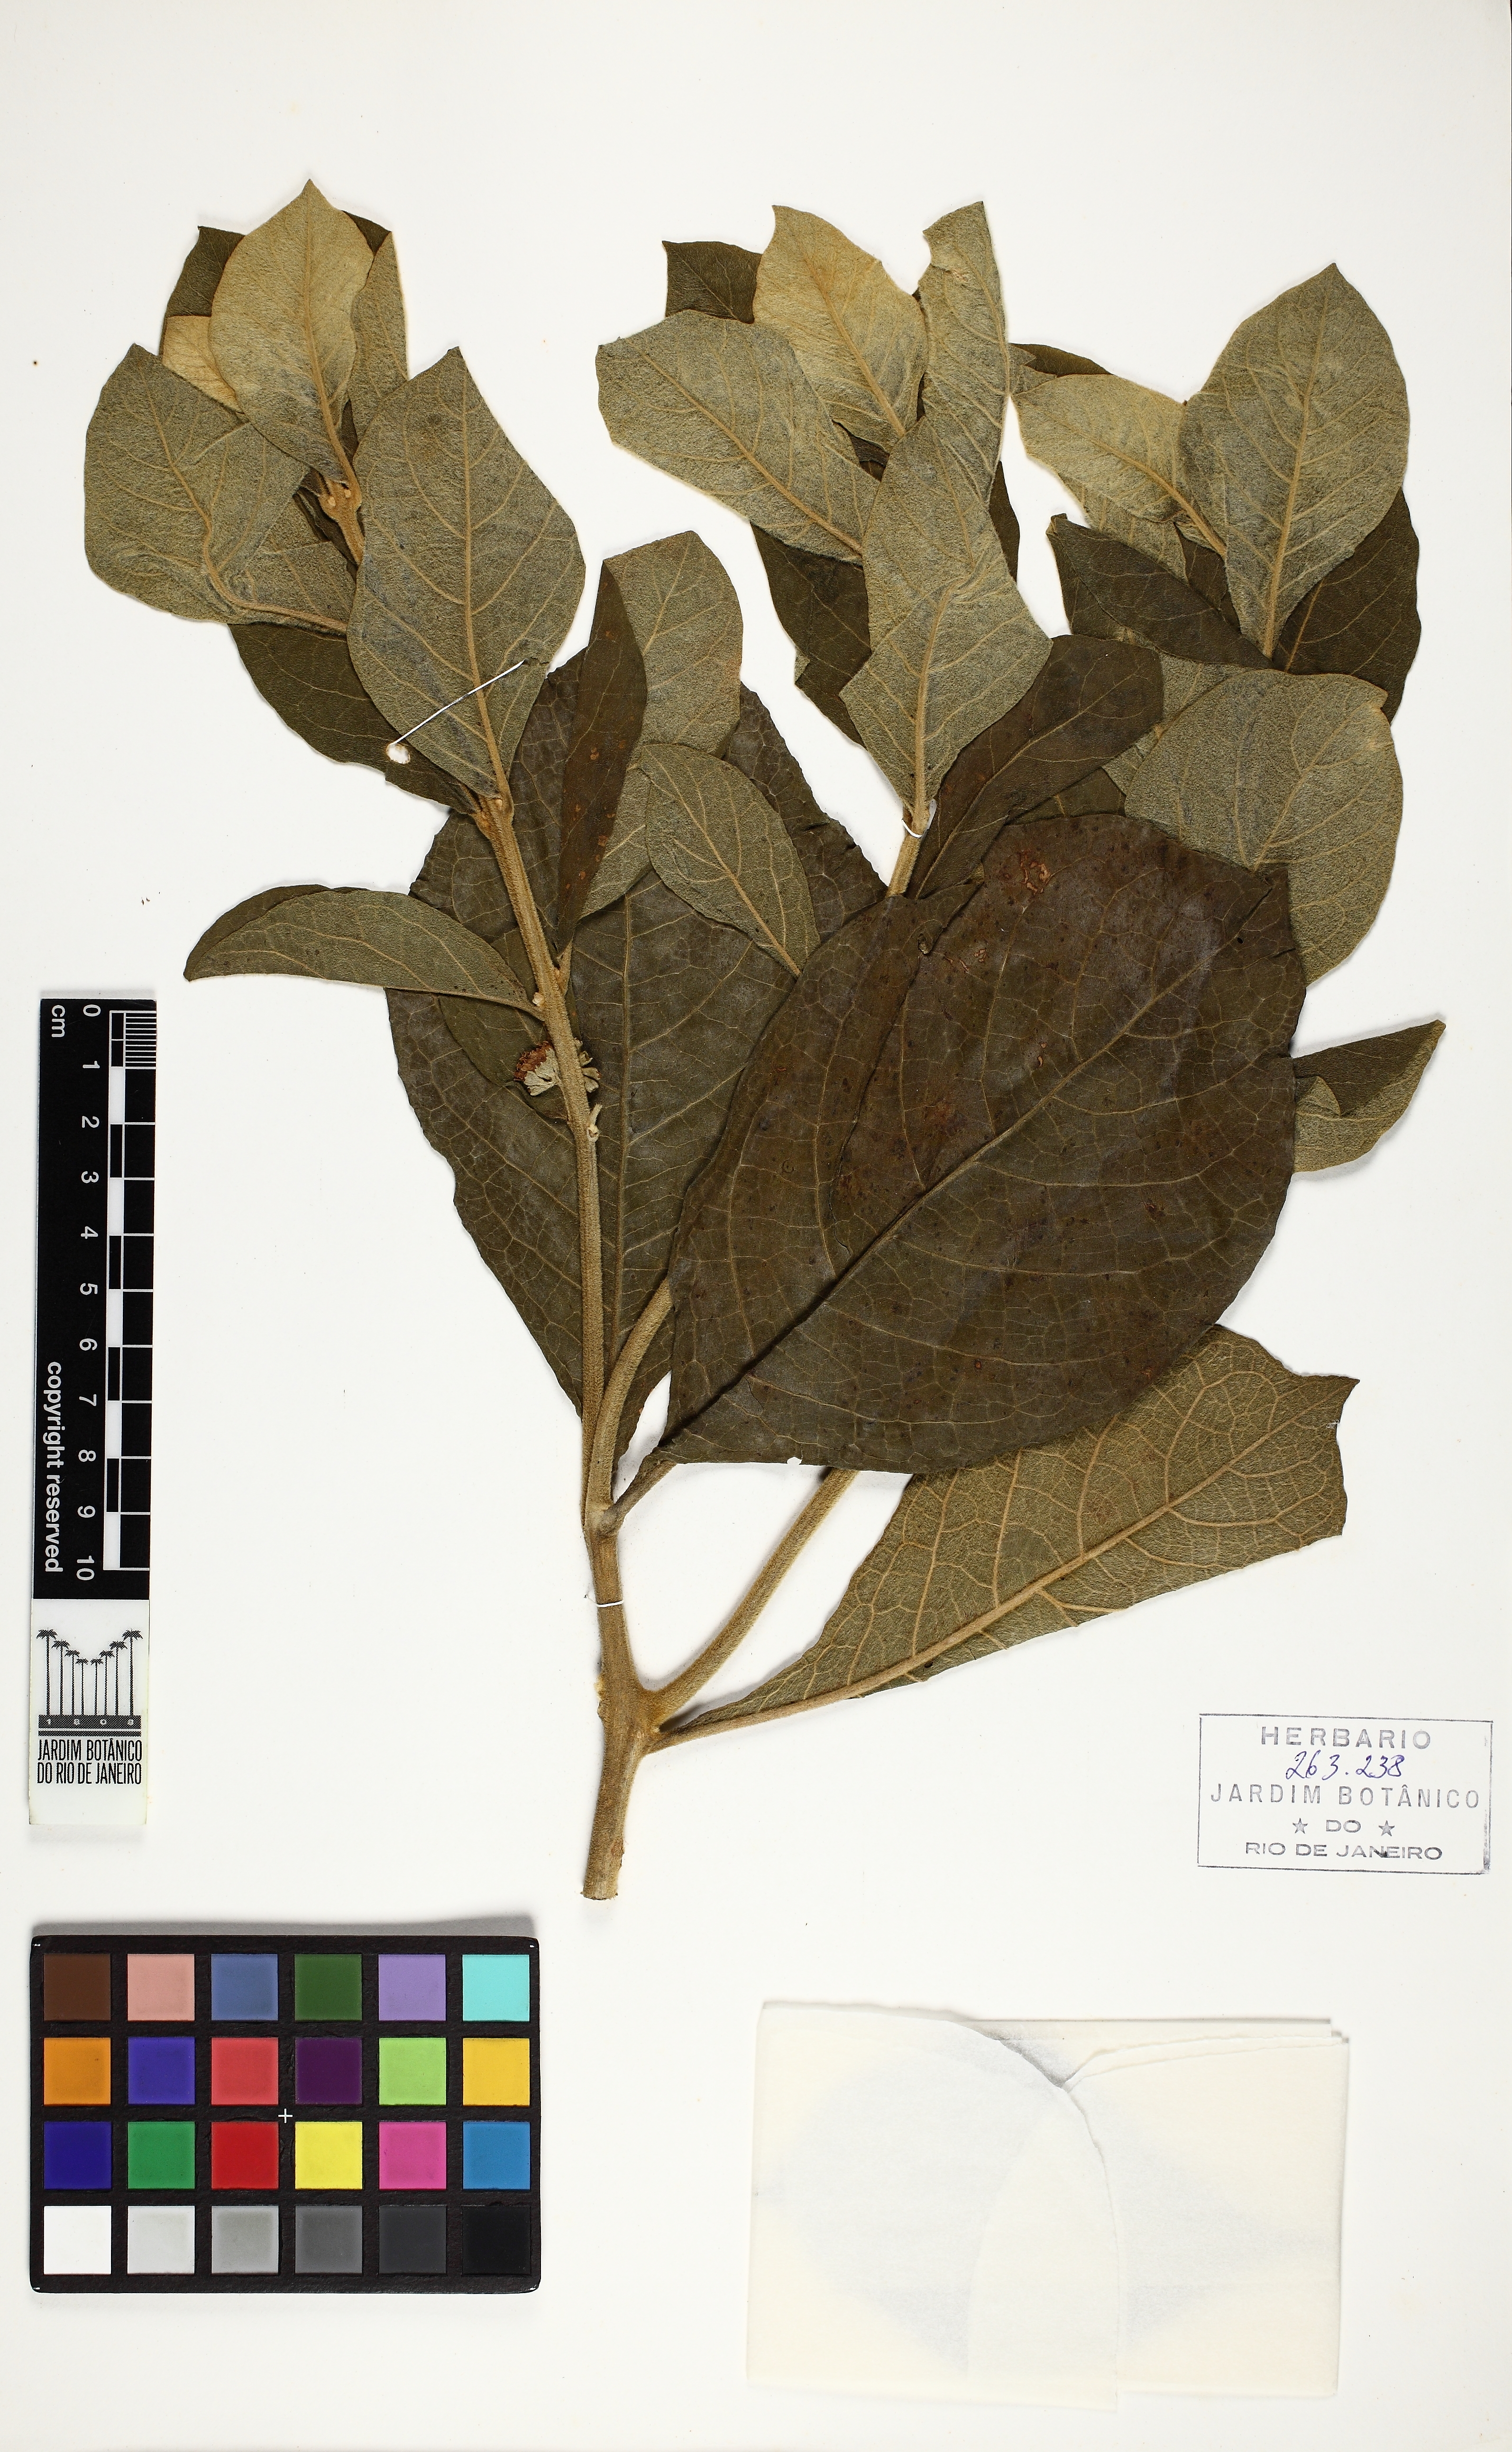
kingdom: Plantae
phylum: Tracheophyta
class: Magnoliopsida
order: Lamiales
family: Lamiaceae
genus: Aegiphila
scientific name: Aegiphila paraguariensis
